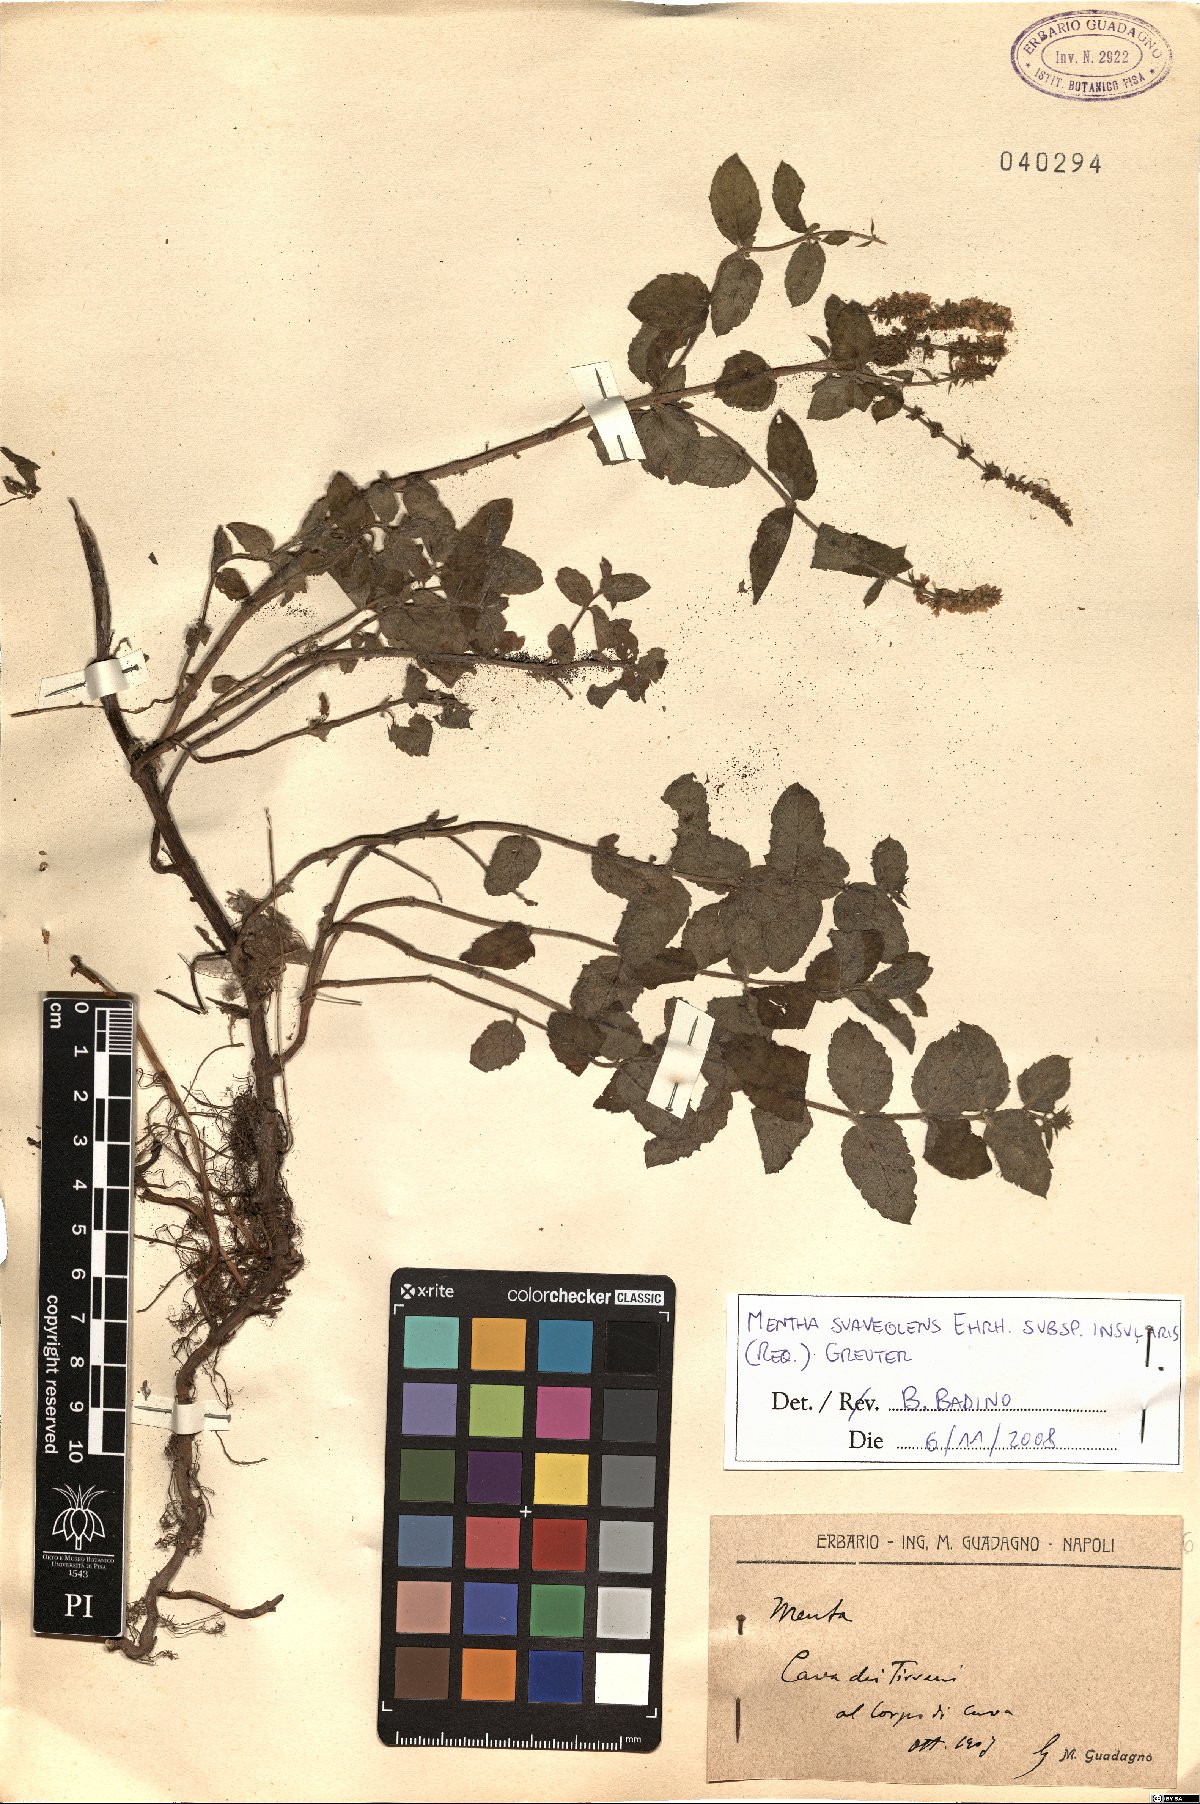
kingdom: Plantae
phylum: Tracheophyta
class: Magnoliopsida
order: Lamiales
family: Lamiaceae
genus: Mentha
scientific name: Mentha suaveolens
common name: Apple mint
